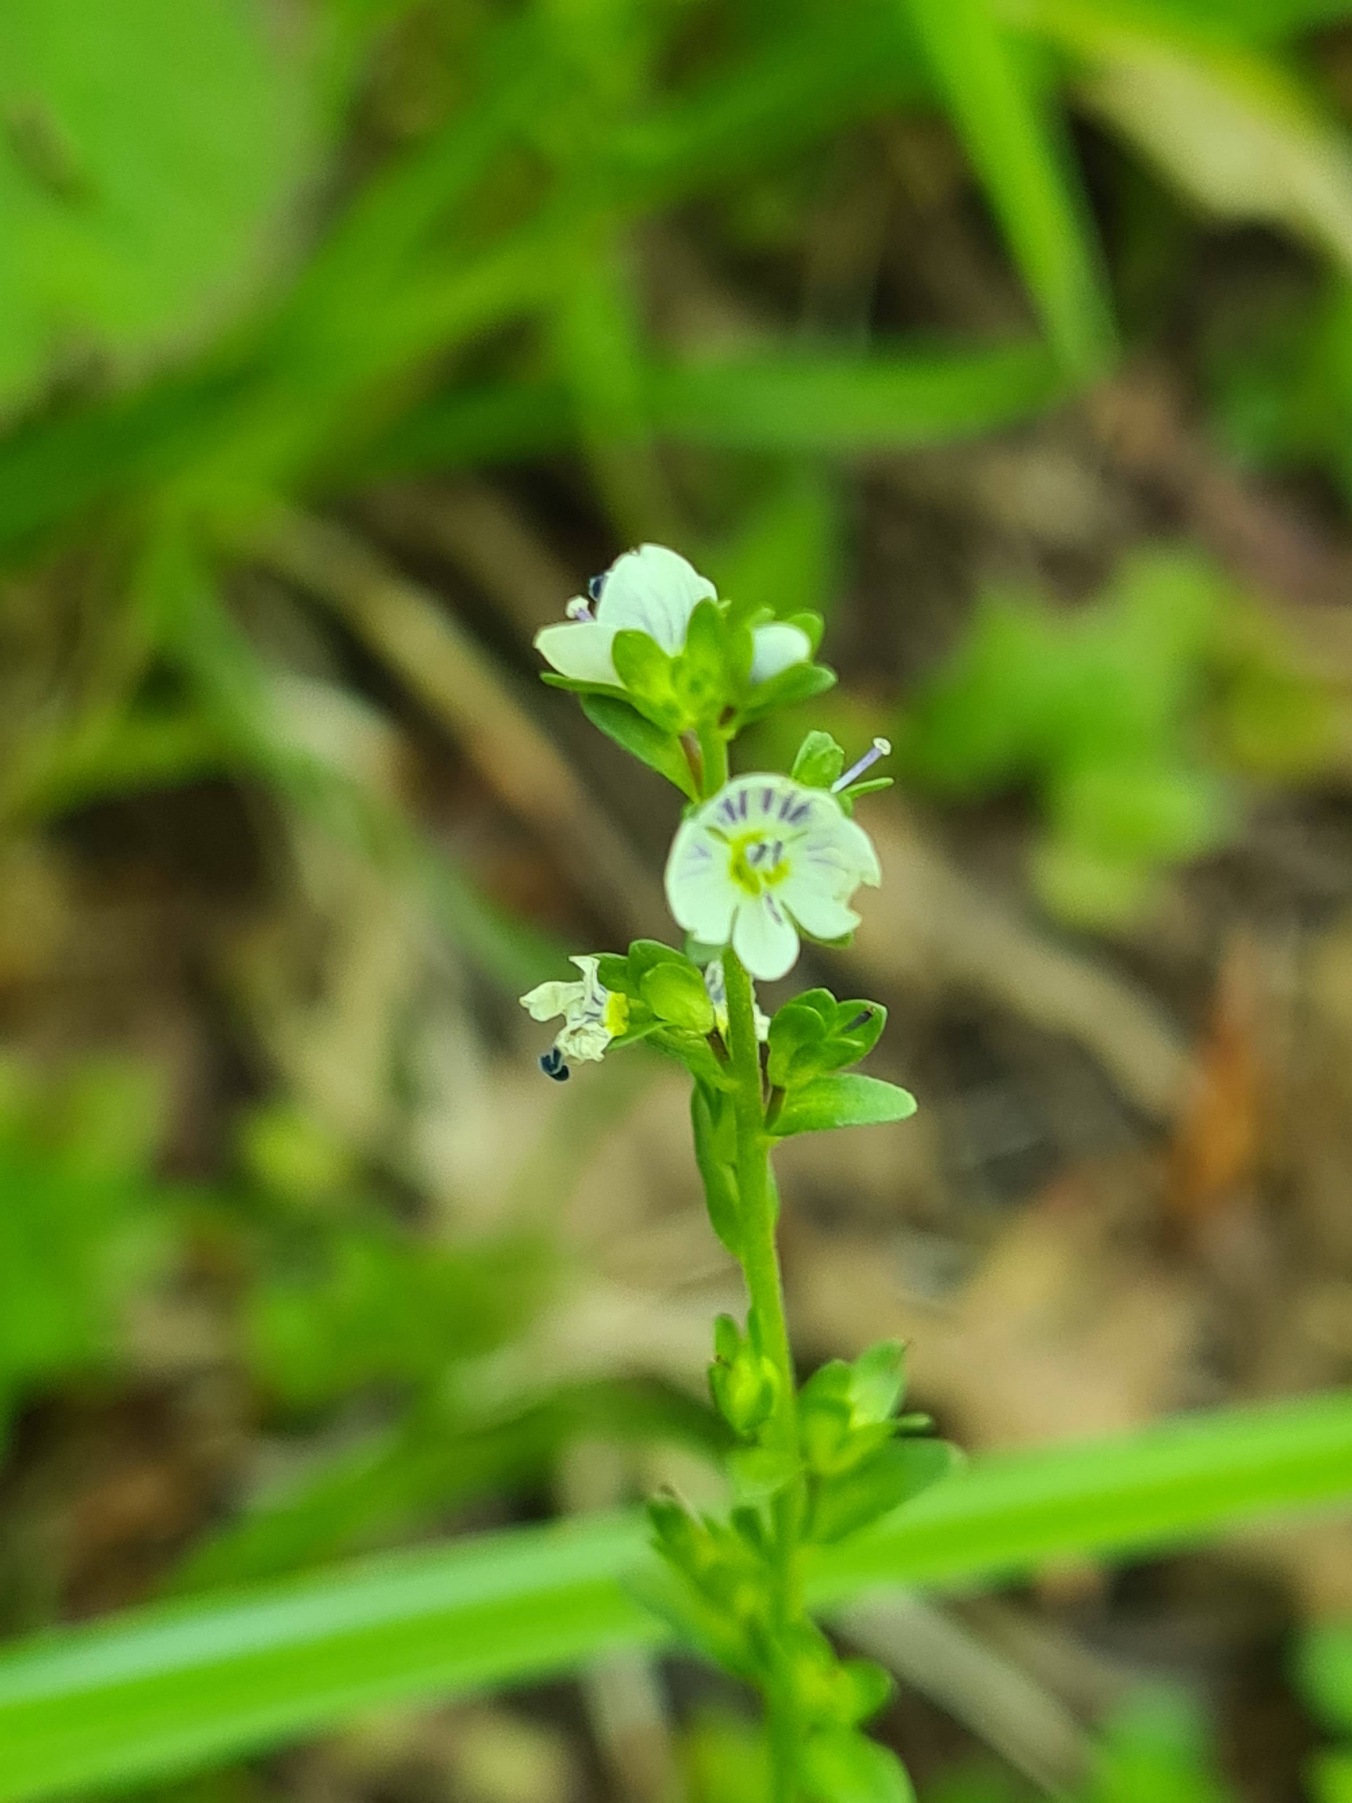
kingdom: Plantae
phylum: Tracheophyta
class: Magnoliopsida
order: Lamiales
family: Plantaginaceae
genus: Veronica
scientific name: Veronica serpyllifolia
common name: Glat ærenpris
